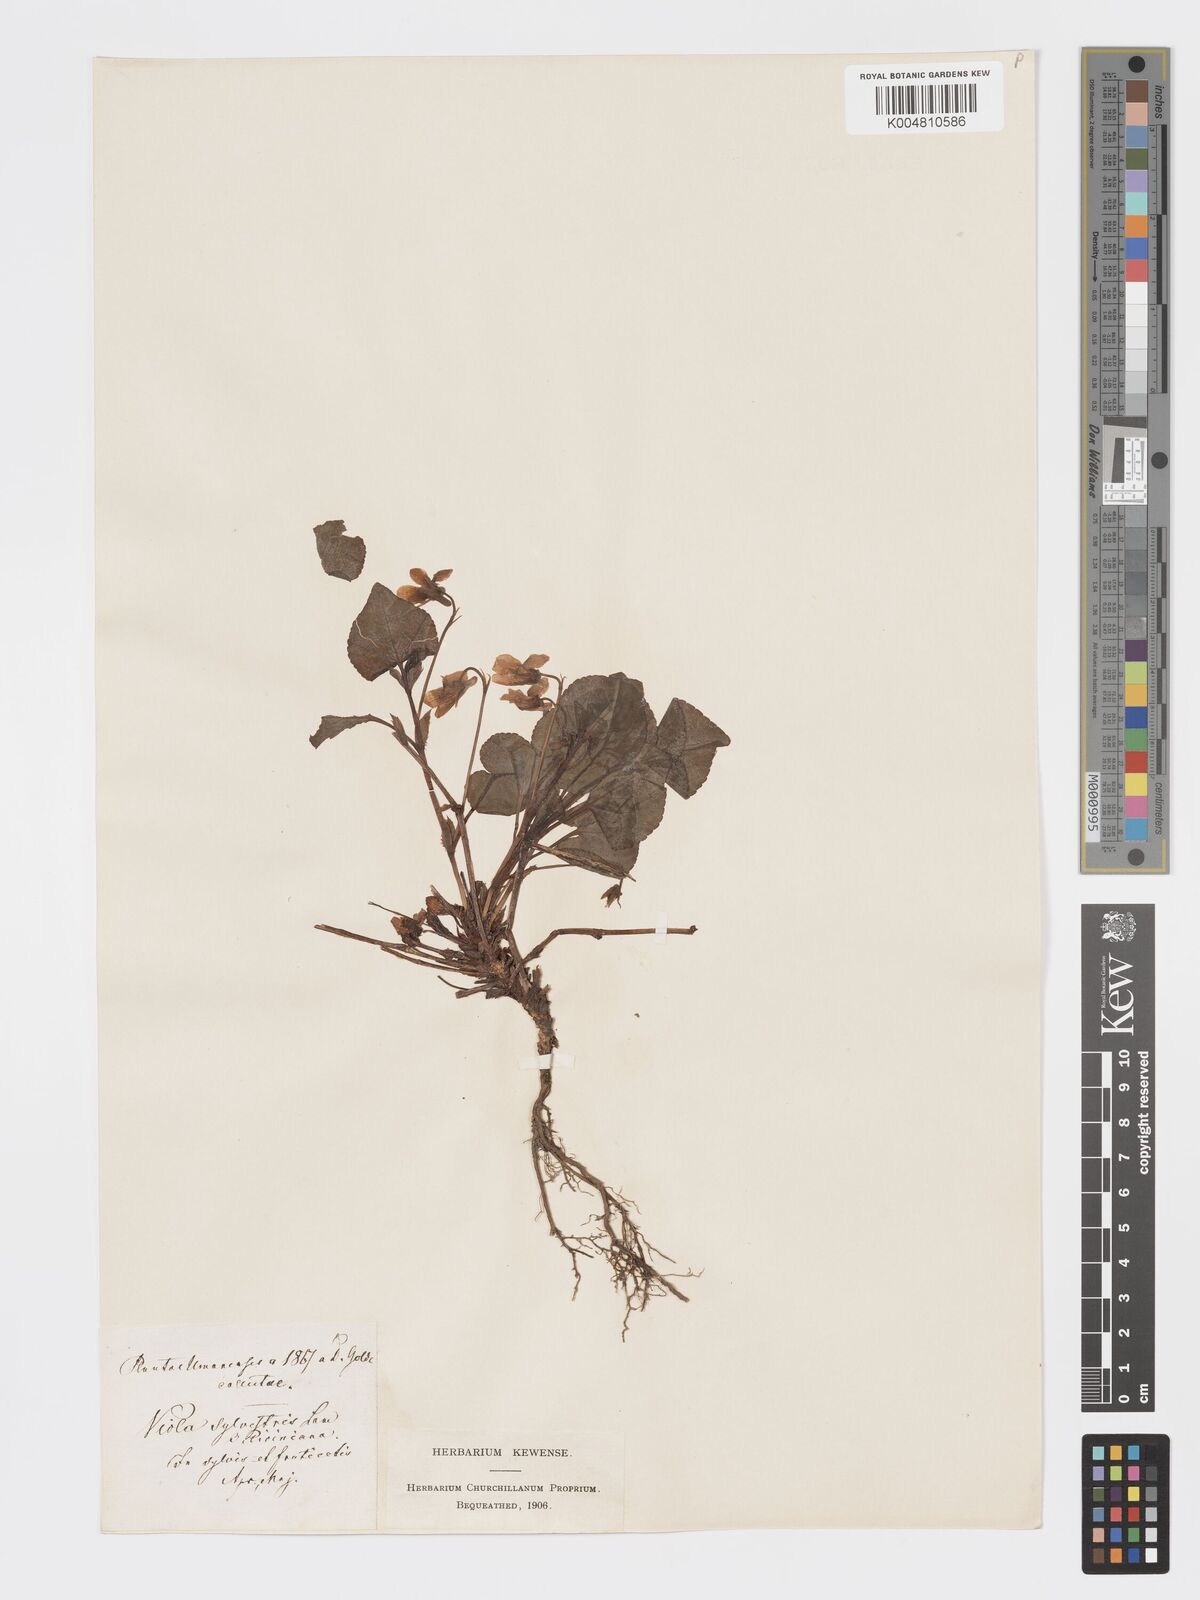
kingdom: Plantae
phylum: Tracheophyta
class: Magnoliopsida
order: Malpighiales
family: Violaceae
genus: Viola
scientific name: Viola mirabilis
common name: Wonder violet
